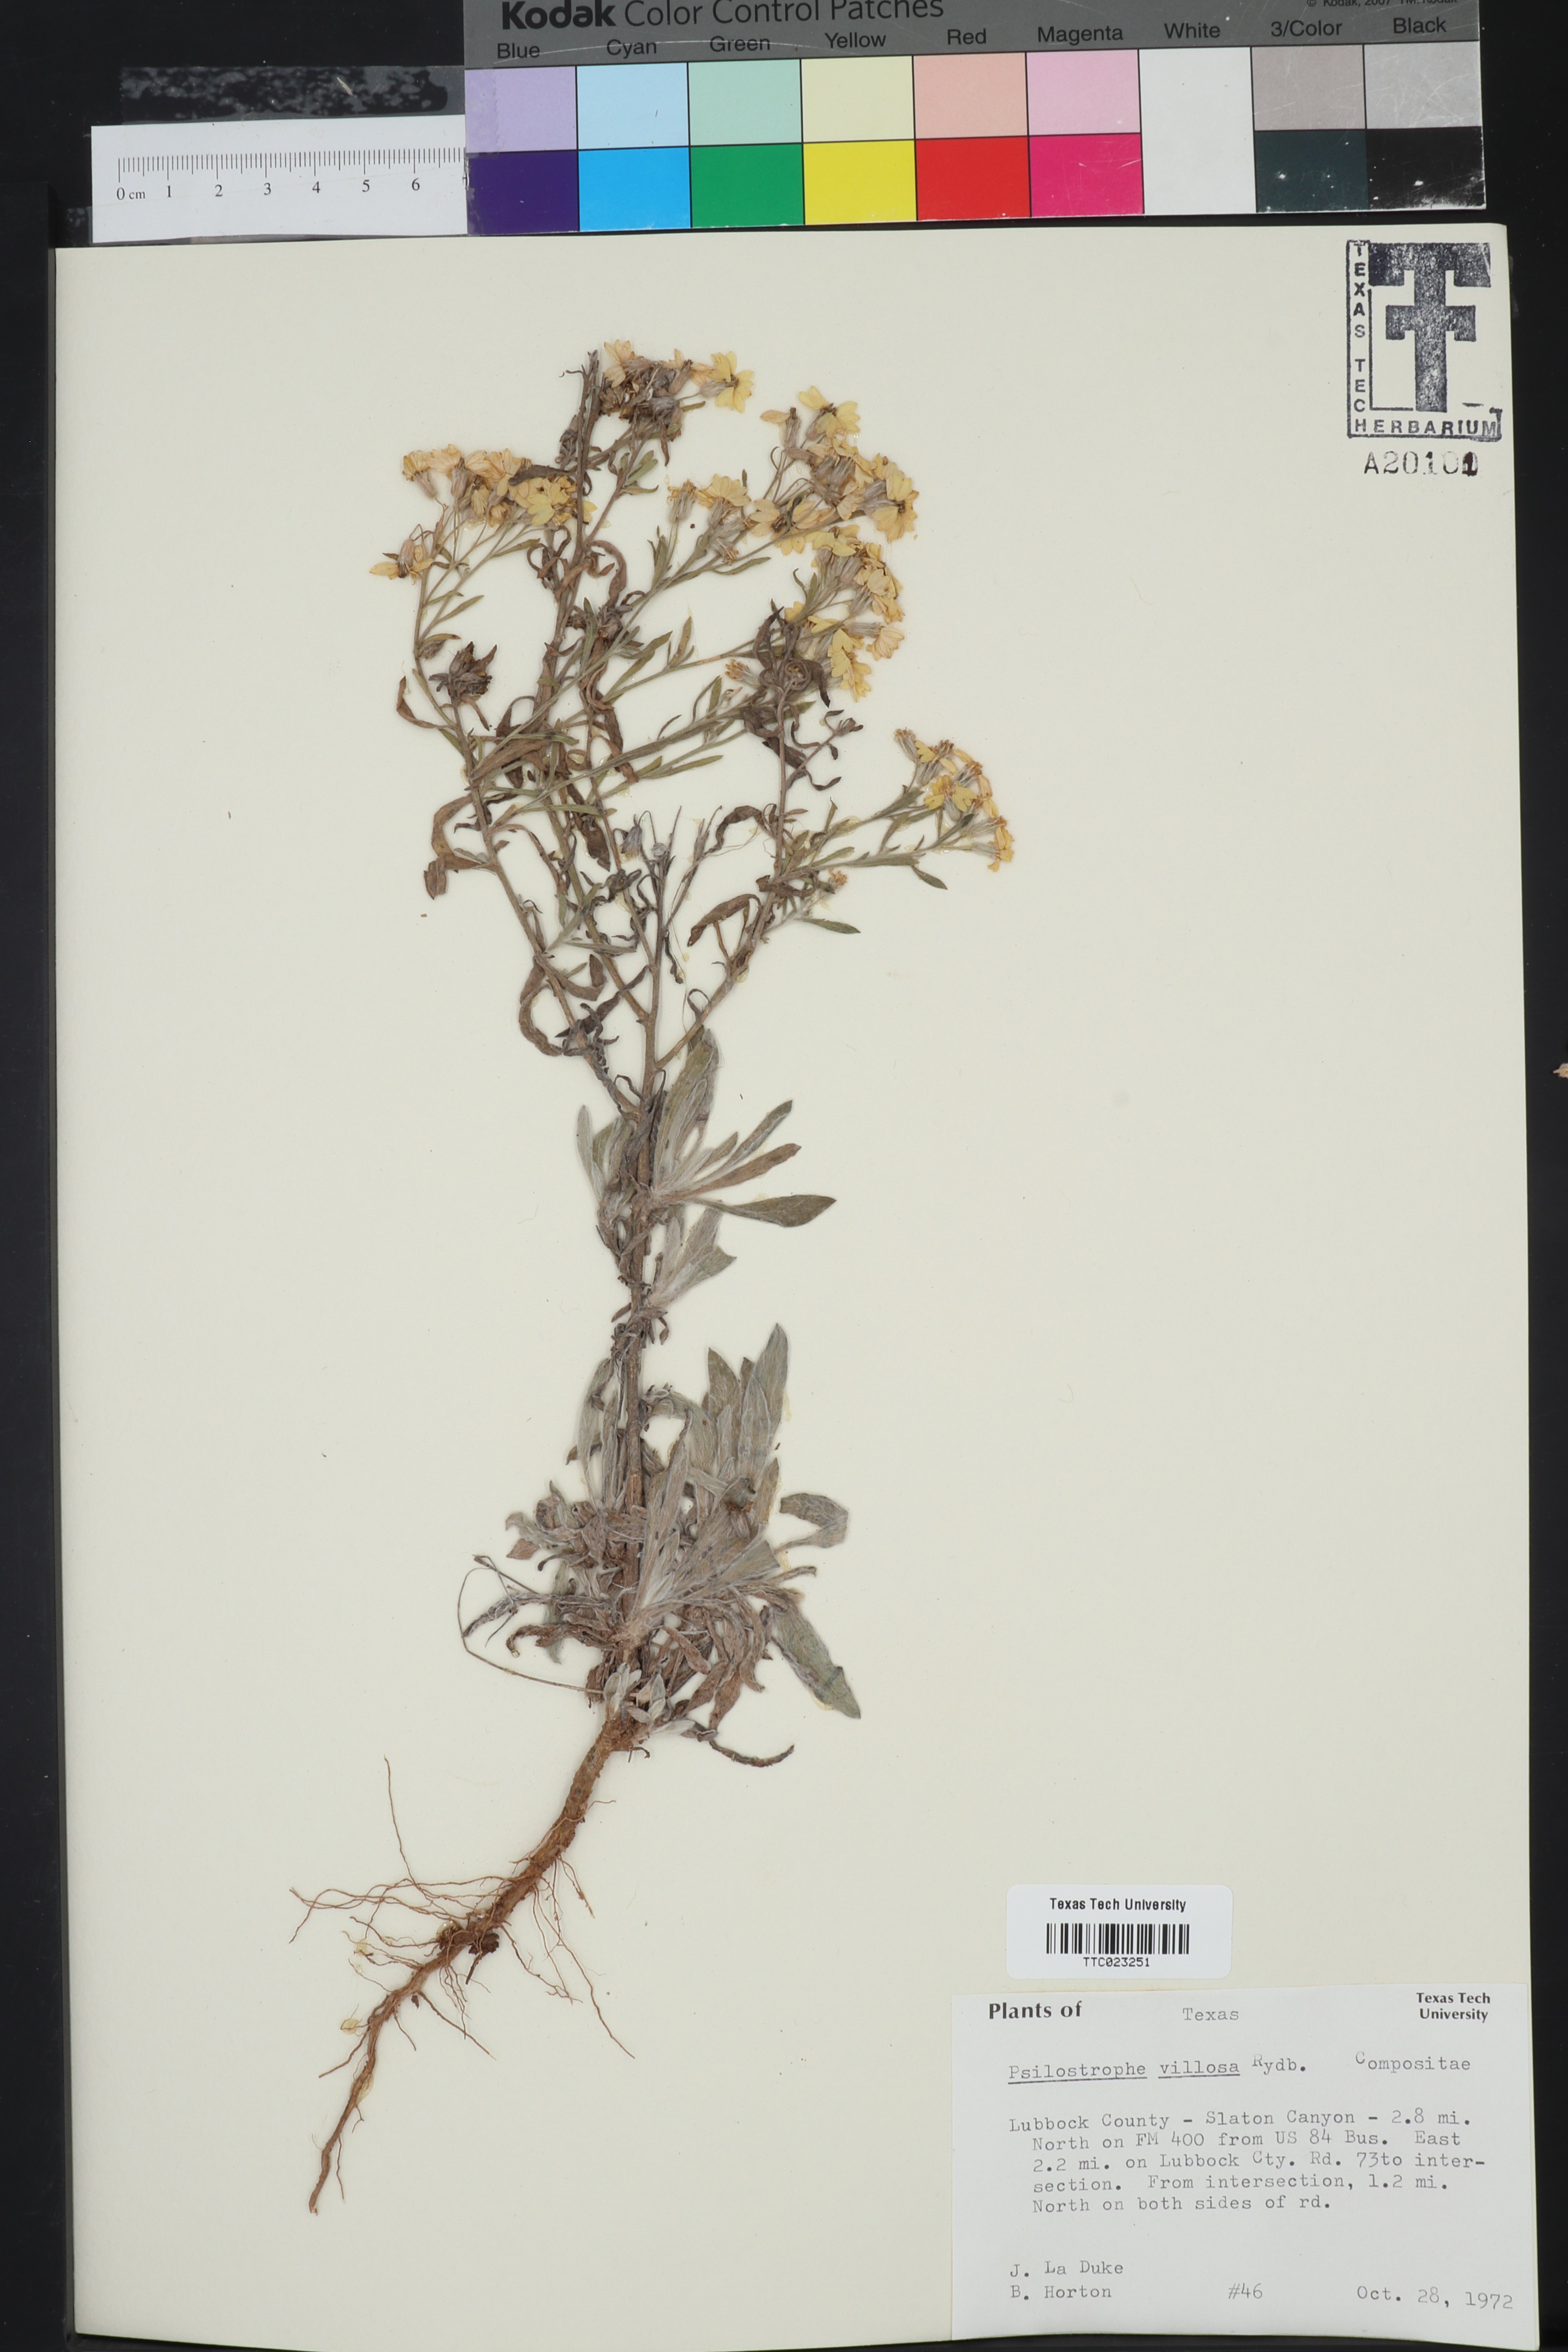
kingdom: Plantae
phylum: Tracheophyta
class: Magnoliopsida
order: Asterales
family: Asteraceae
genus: Psilostrophe
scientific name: Psilostrophe villosa
